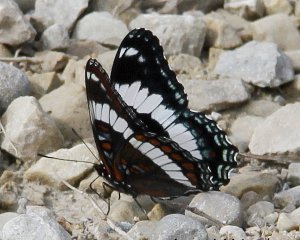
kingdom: Animalia
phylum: Arthropoda
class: Insecta
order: Lepidoptera
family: Nymphalidae
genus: Limenitis
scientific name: Limenitis arthemis
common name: Red-spotted Admiral
